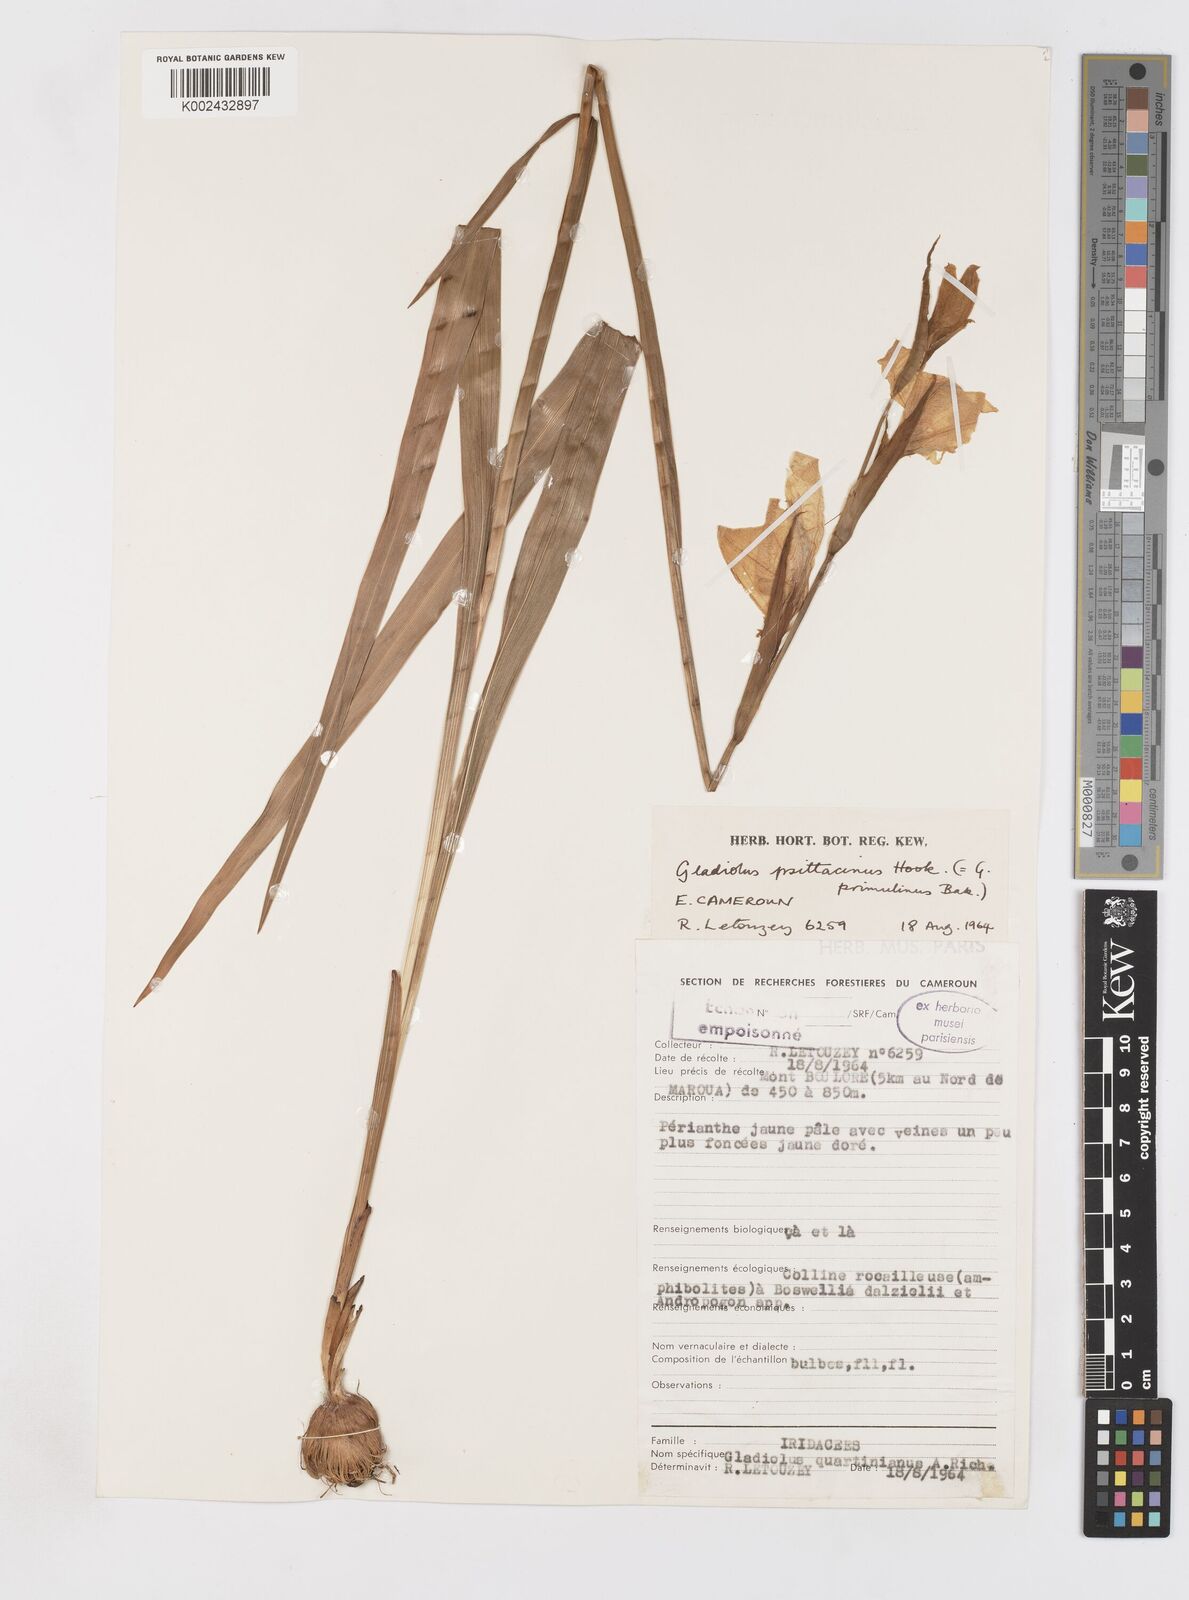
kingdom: Plantae
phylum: Tracheophyta
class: Liliopsida
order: Asparagales
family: Iridaceae
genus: Gladiolus
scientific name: Gladiolus dalenii
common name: Cornflag
